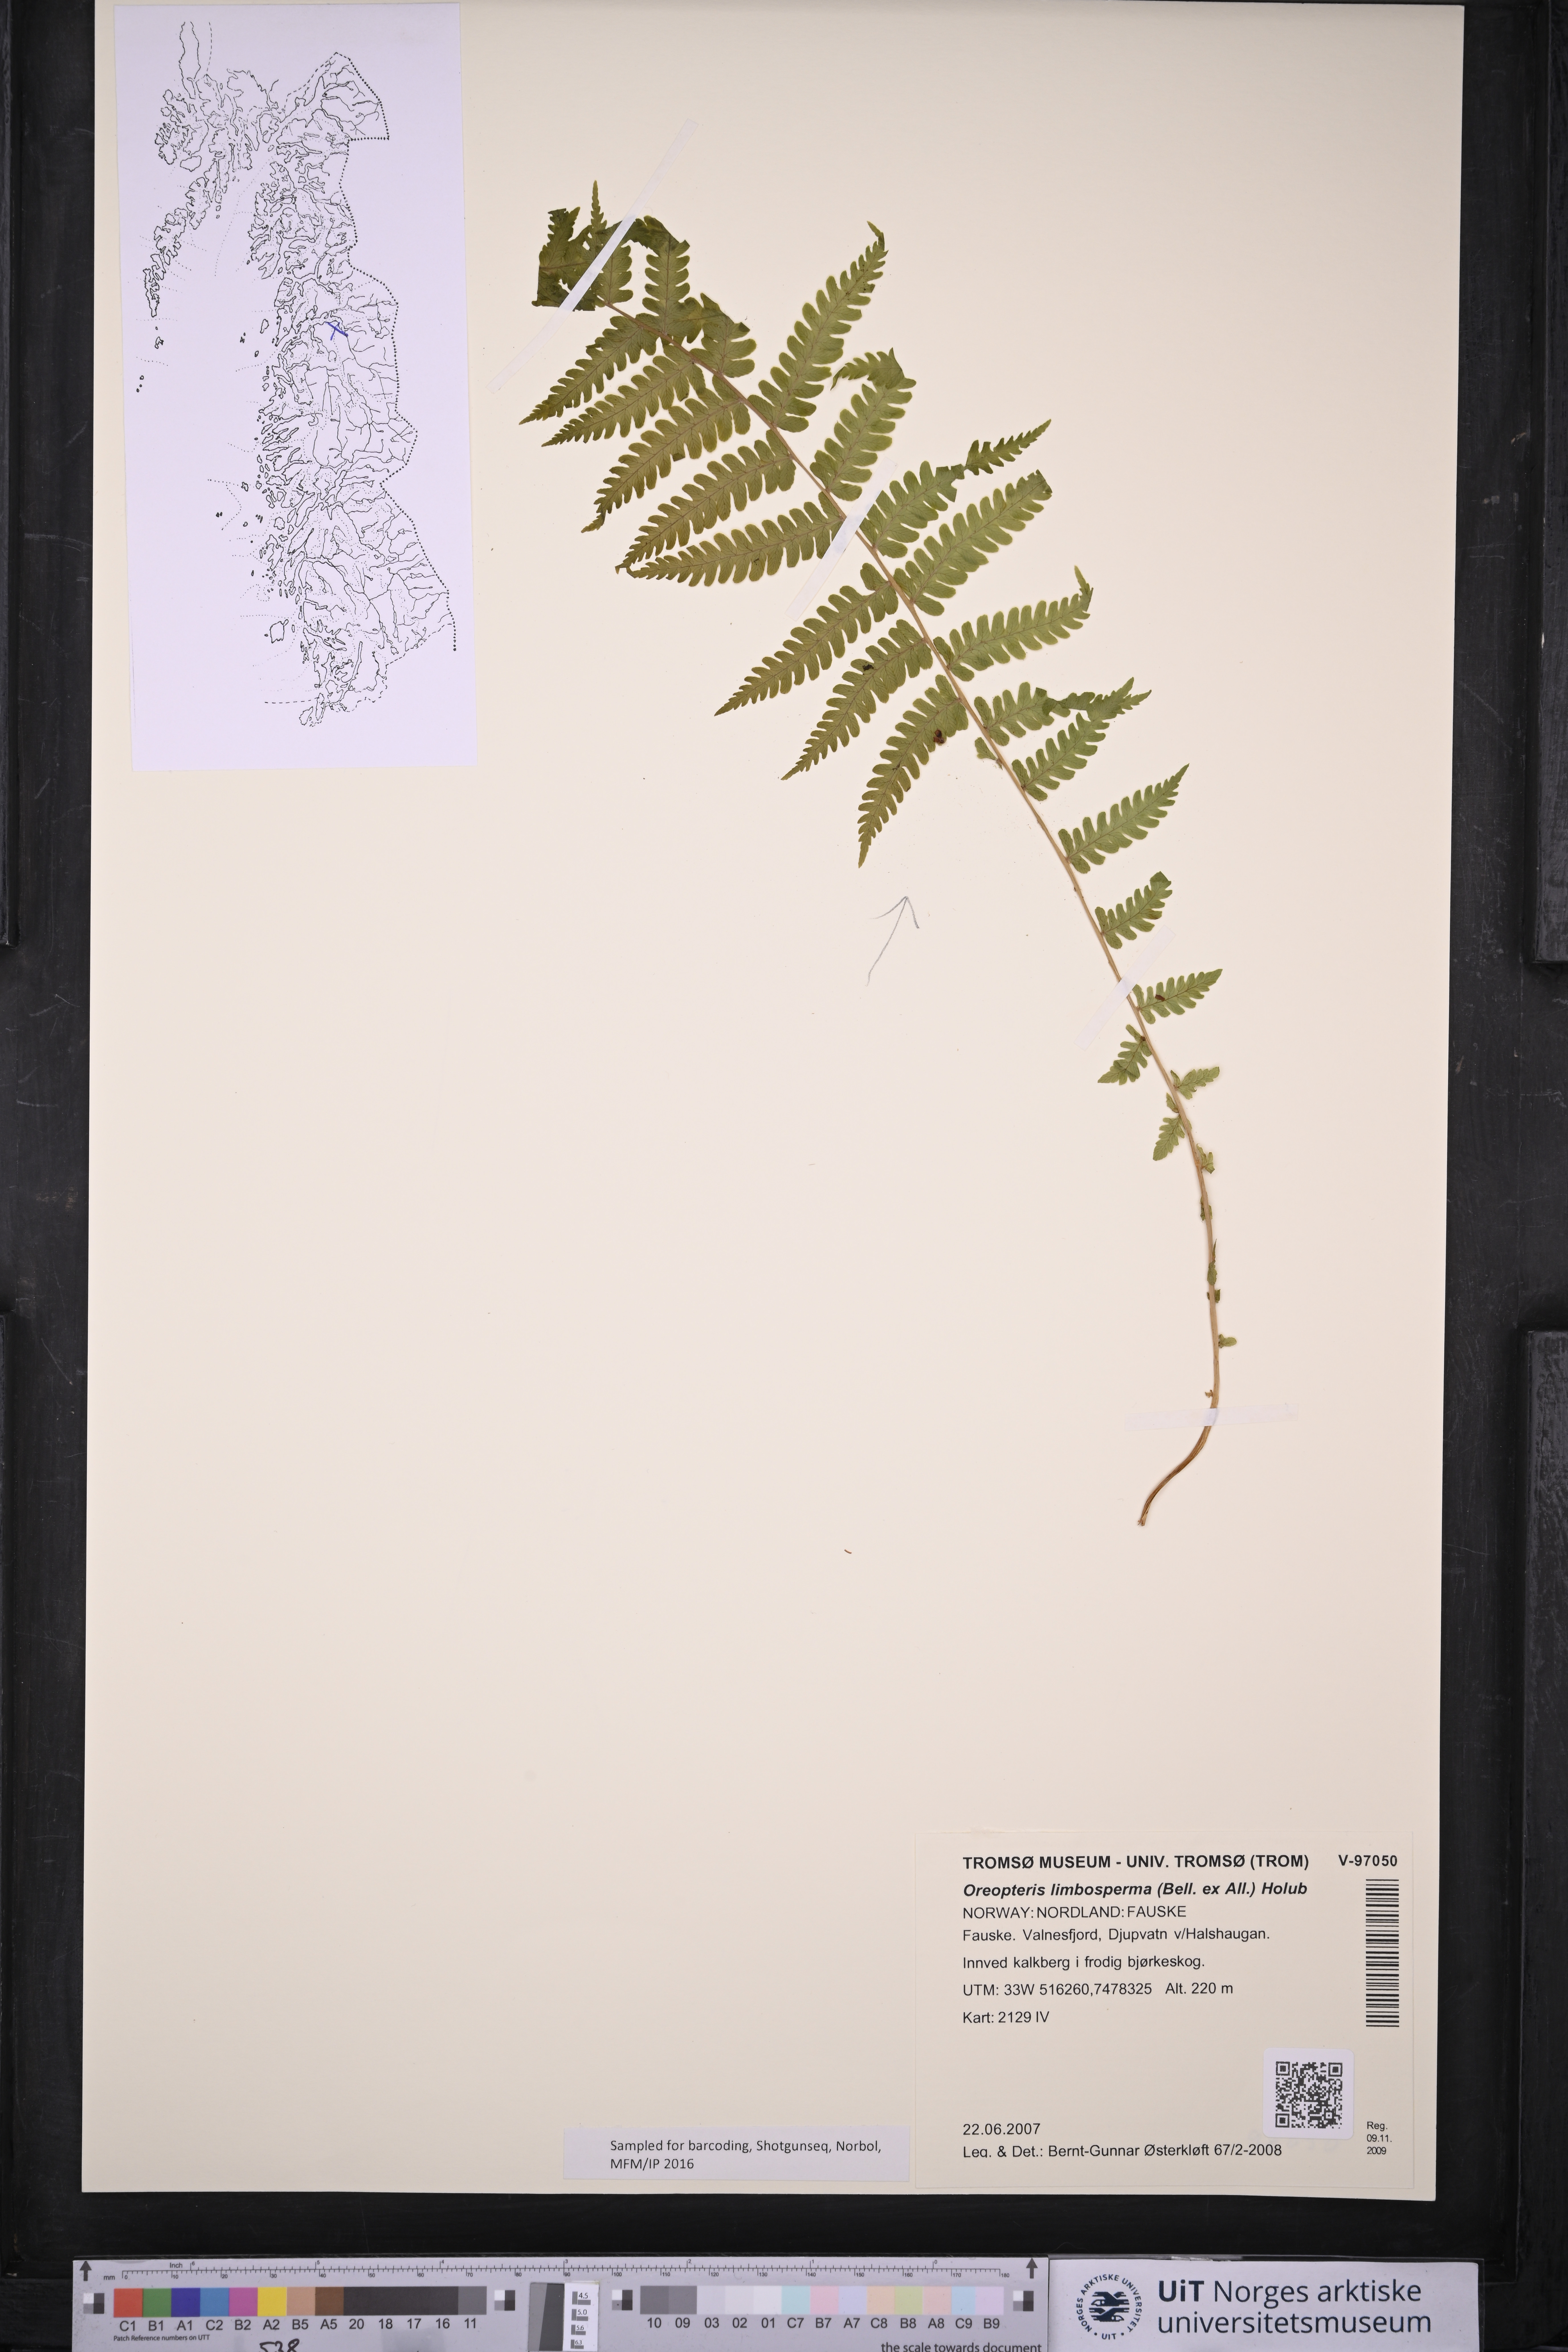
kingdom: Plantae
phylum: Tracheophyta
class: Polypodiopsida
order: Polypodiales
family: Thelypteridaceae
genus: Oreopteris
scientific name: Oreopteris limbosperma
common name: Lemon-scented fern
